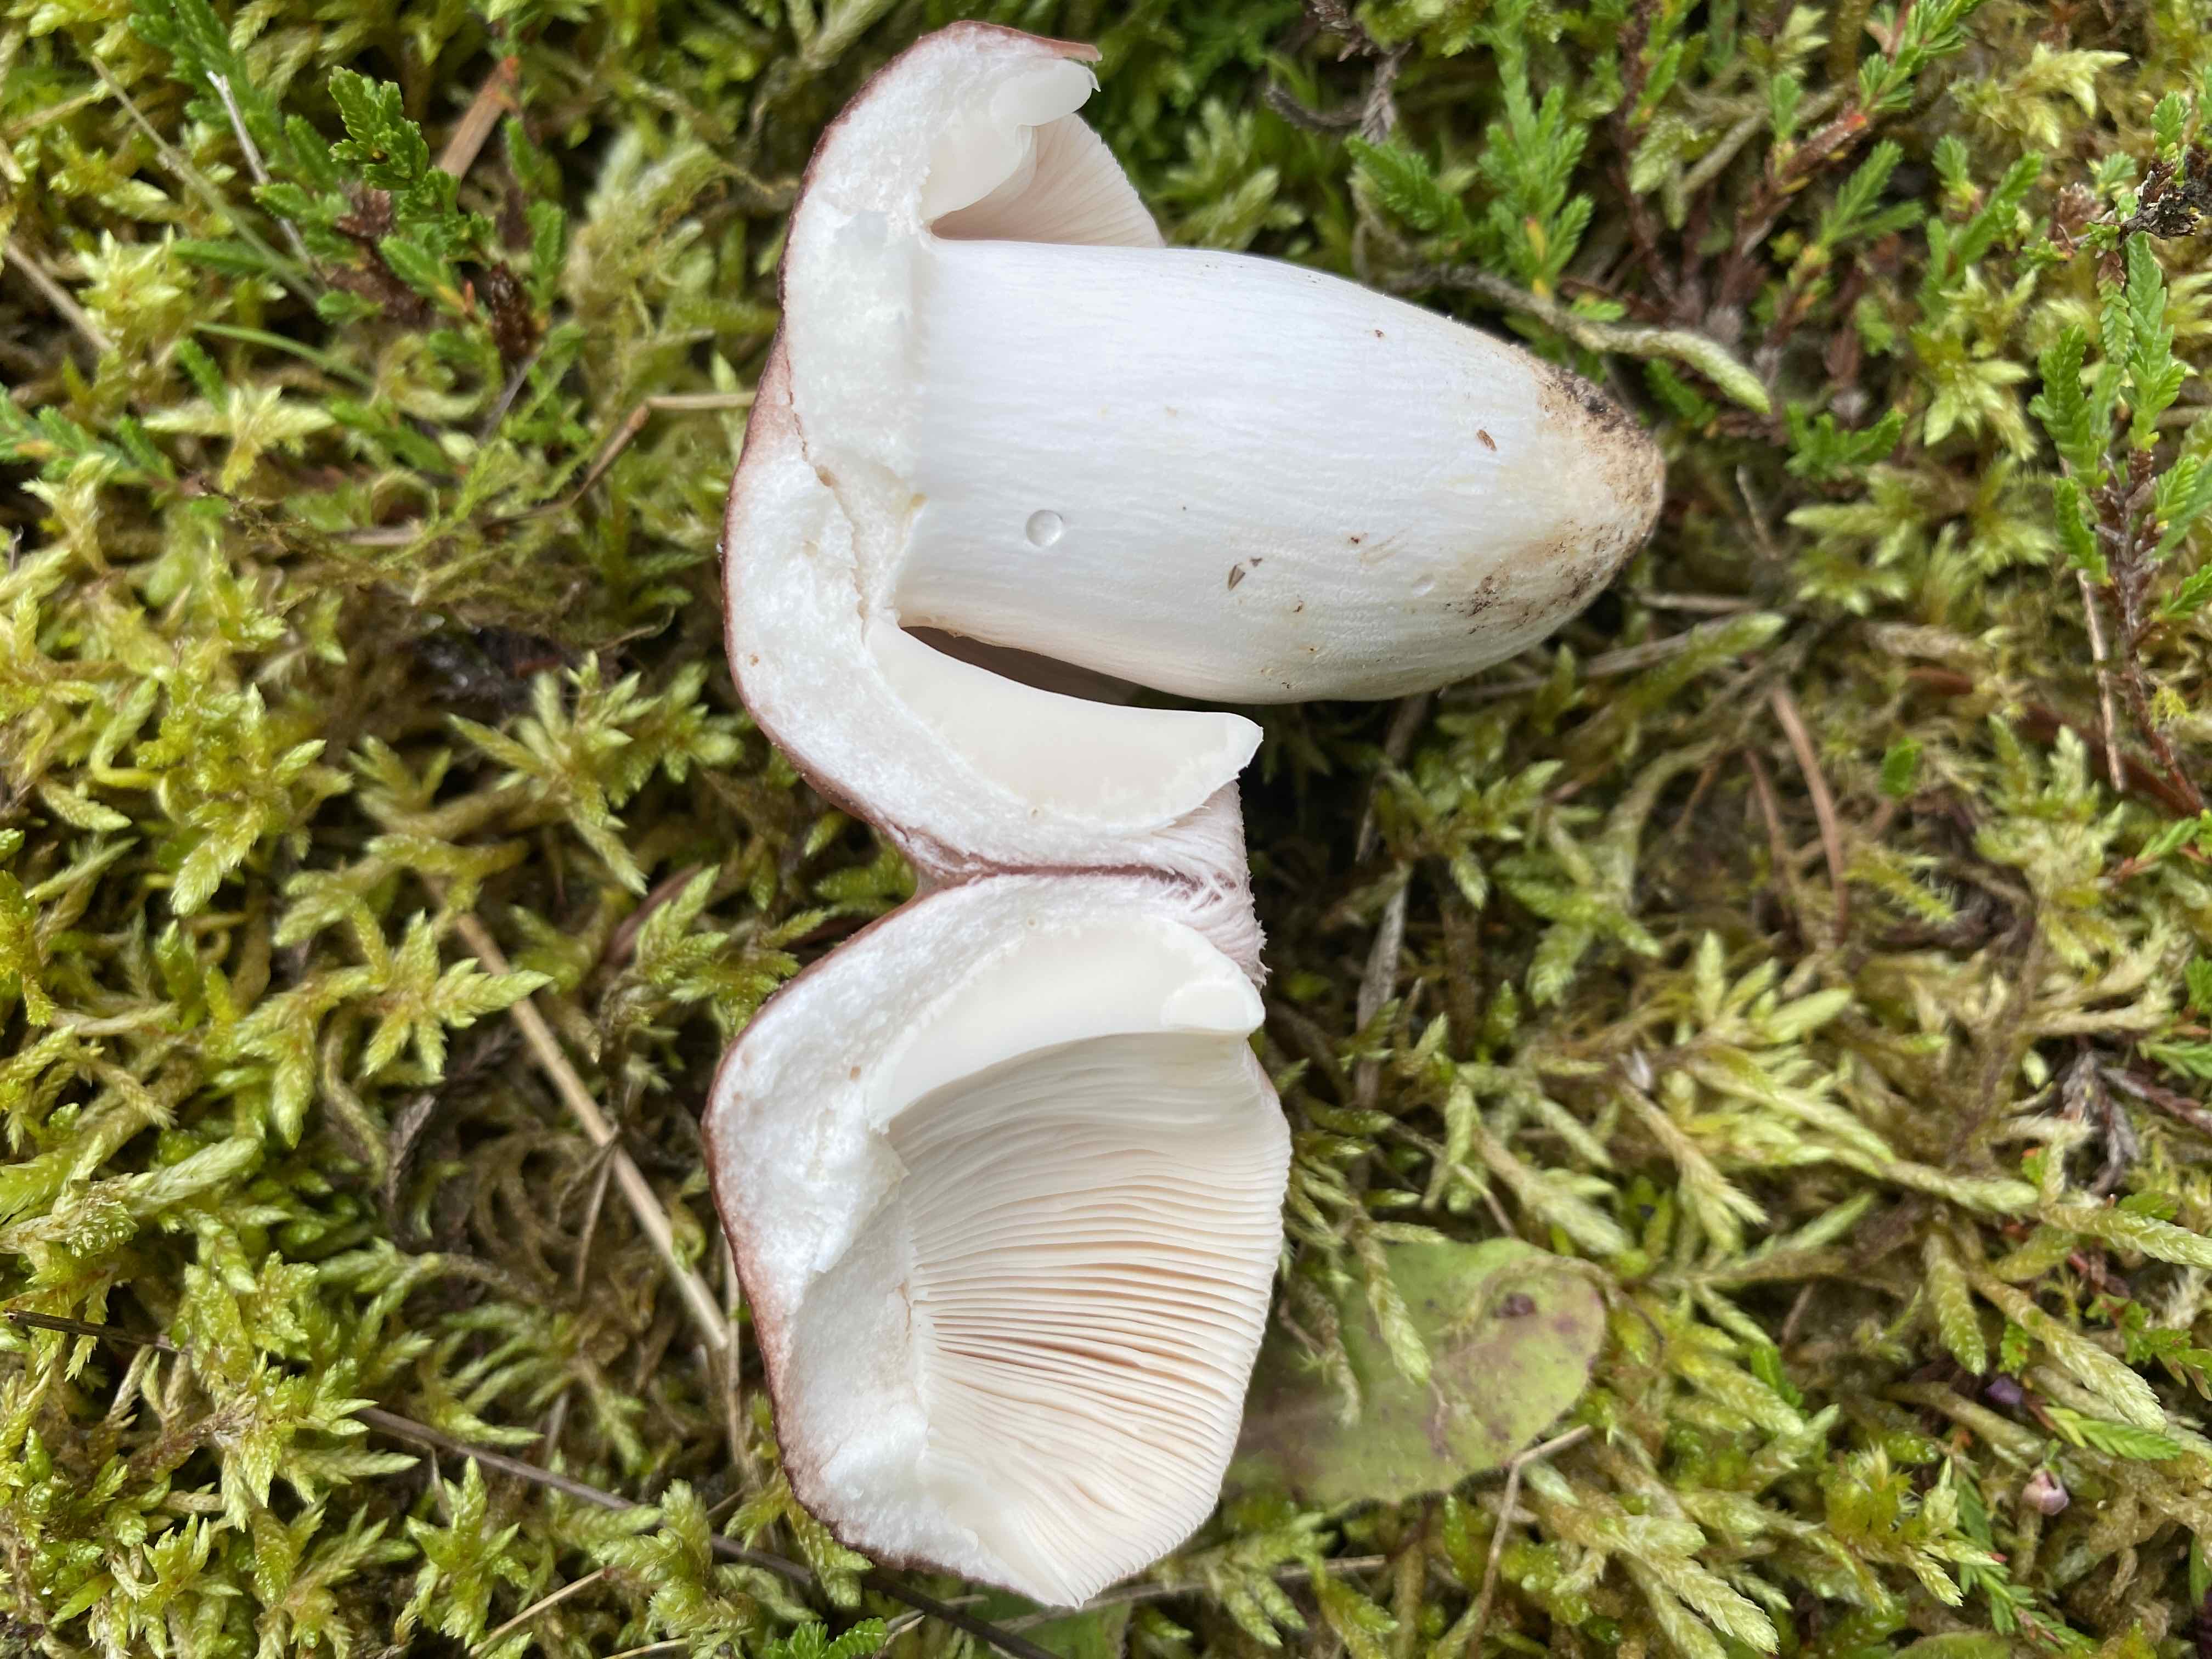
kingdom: Fungi
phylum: Basidiomycota
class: Agaricomycetes
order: Russulales
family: Russulaceae
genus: Russula
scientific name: Russula vesca
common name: spiselig skørhat
